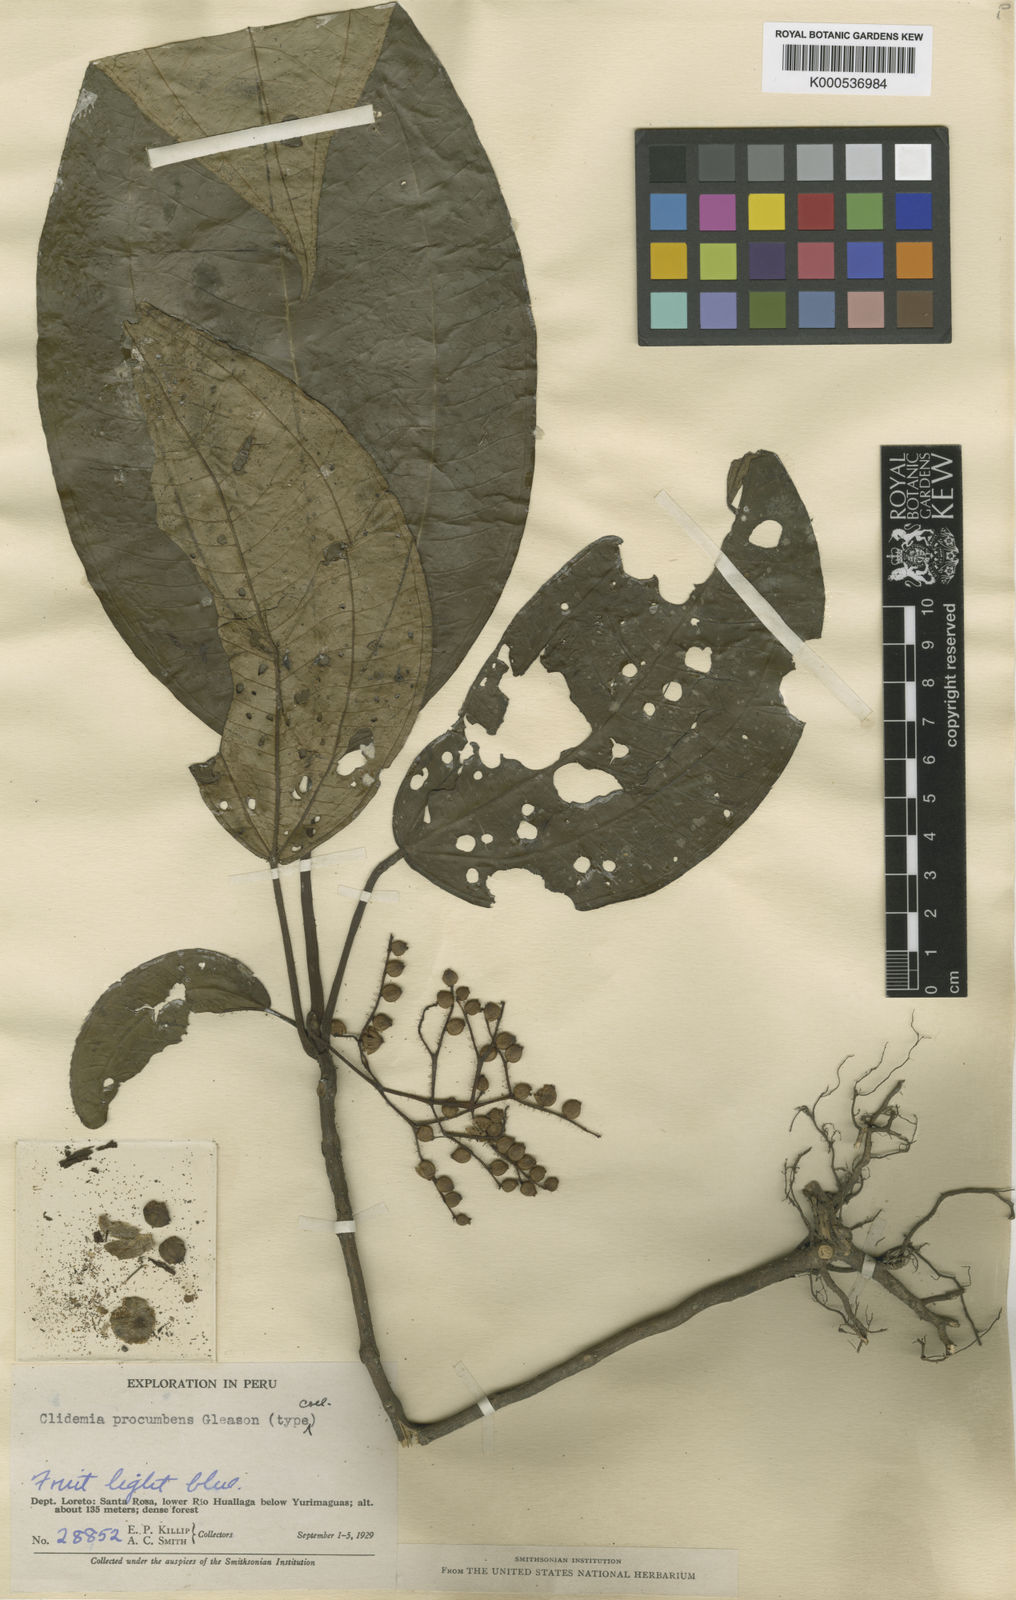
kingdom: Plantae
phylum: Tracheophyta
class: Magnoliopsida
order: Myrtales
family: Melastomataceae
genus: Miconia
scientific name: Miconia procumbens
